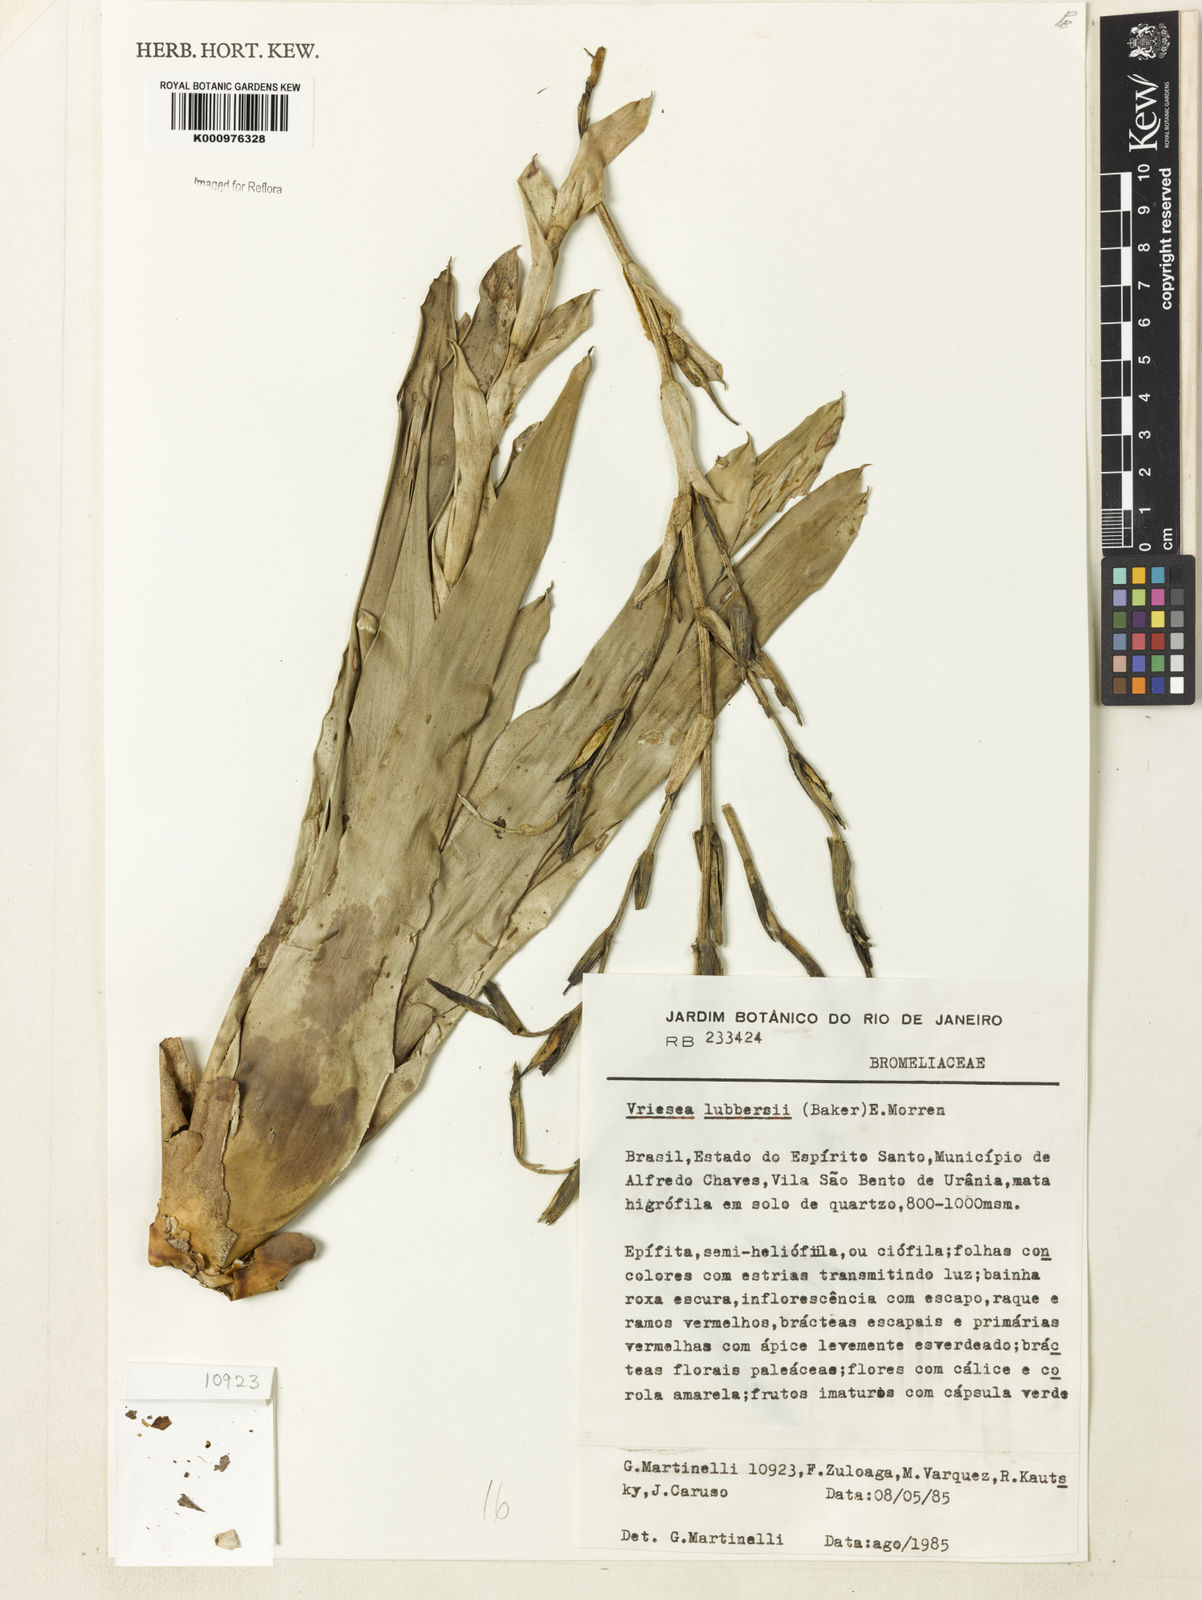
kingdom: Plantae
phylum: Tracheophyta
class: Liliopsida
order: Poales
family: Bromeliaceae
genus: Vriesea
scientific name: Vriesea
